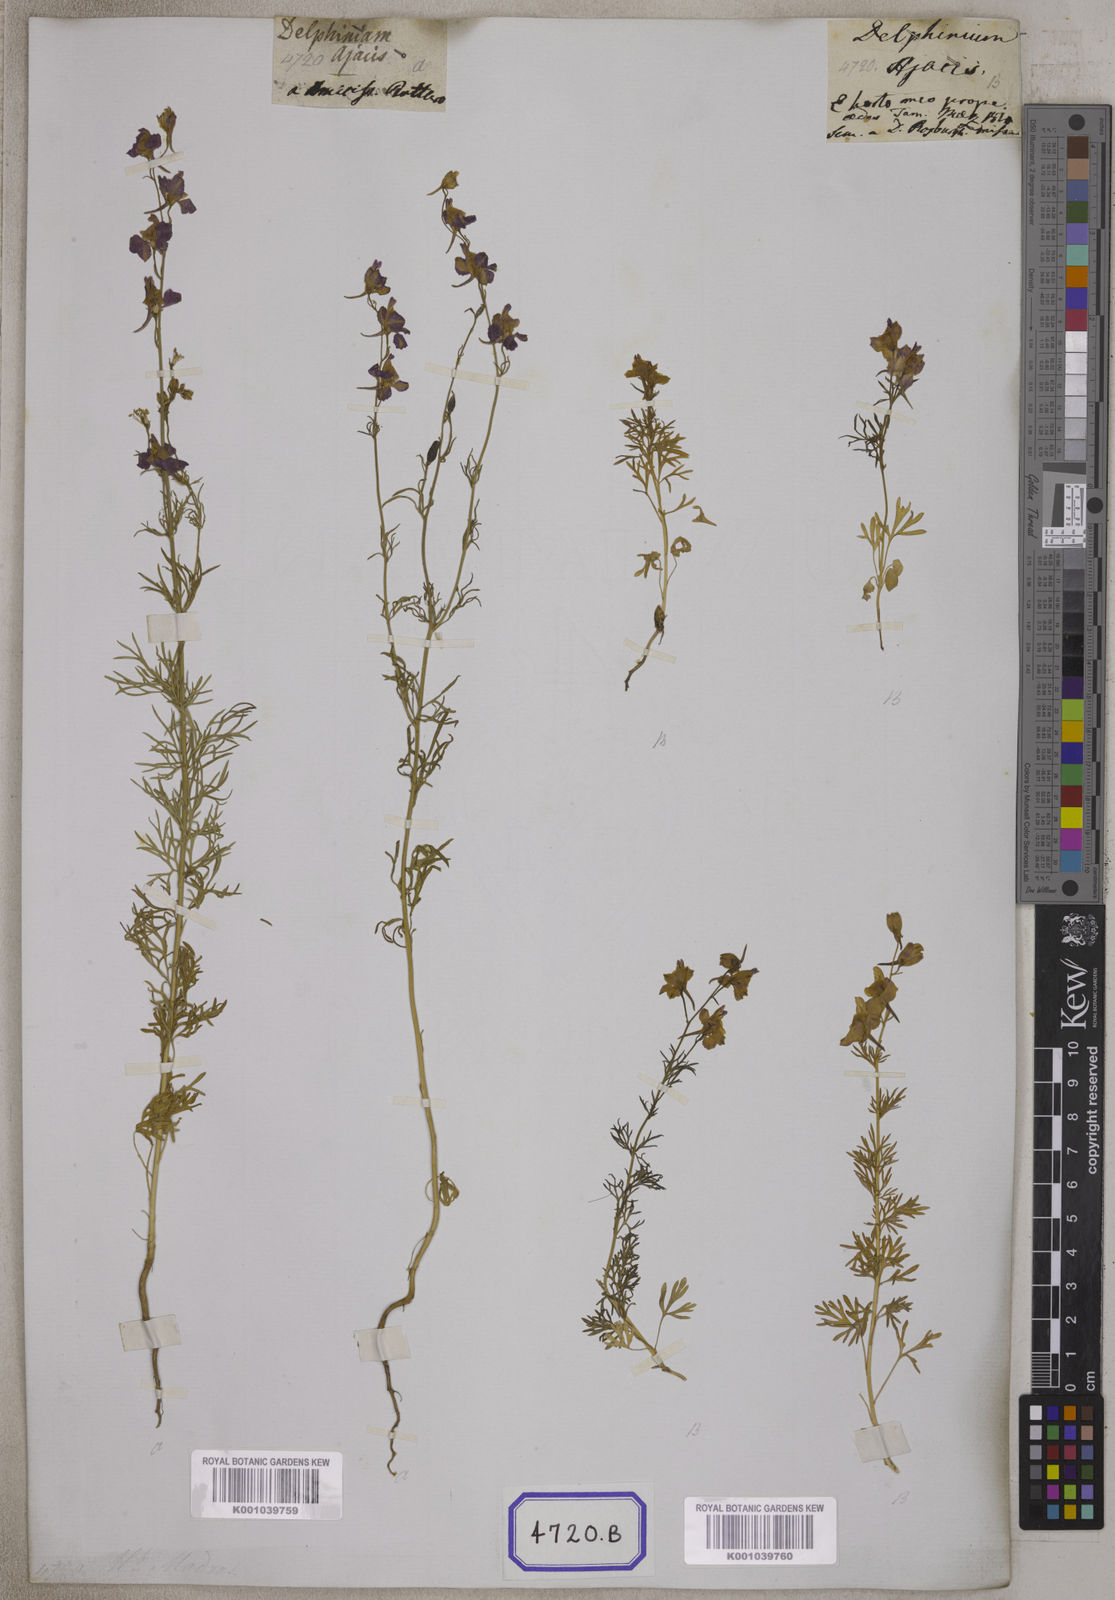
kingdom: Plantae
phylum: Tracheophyta
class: Magnoliopsida
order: Ranunculales
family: Ranunculaceae
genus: Delphinium
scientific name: Delphinium ajacis
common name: Doubtful knight's-spur
